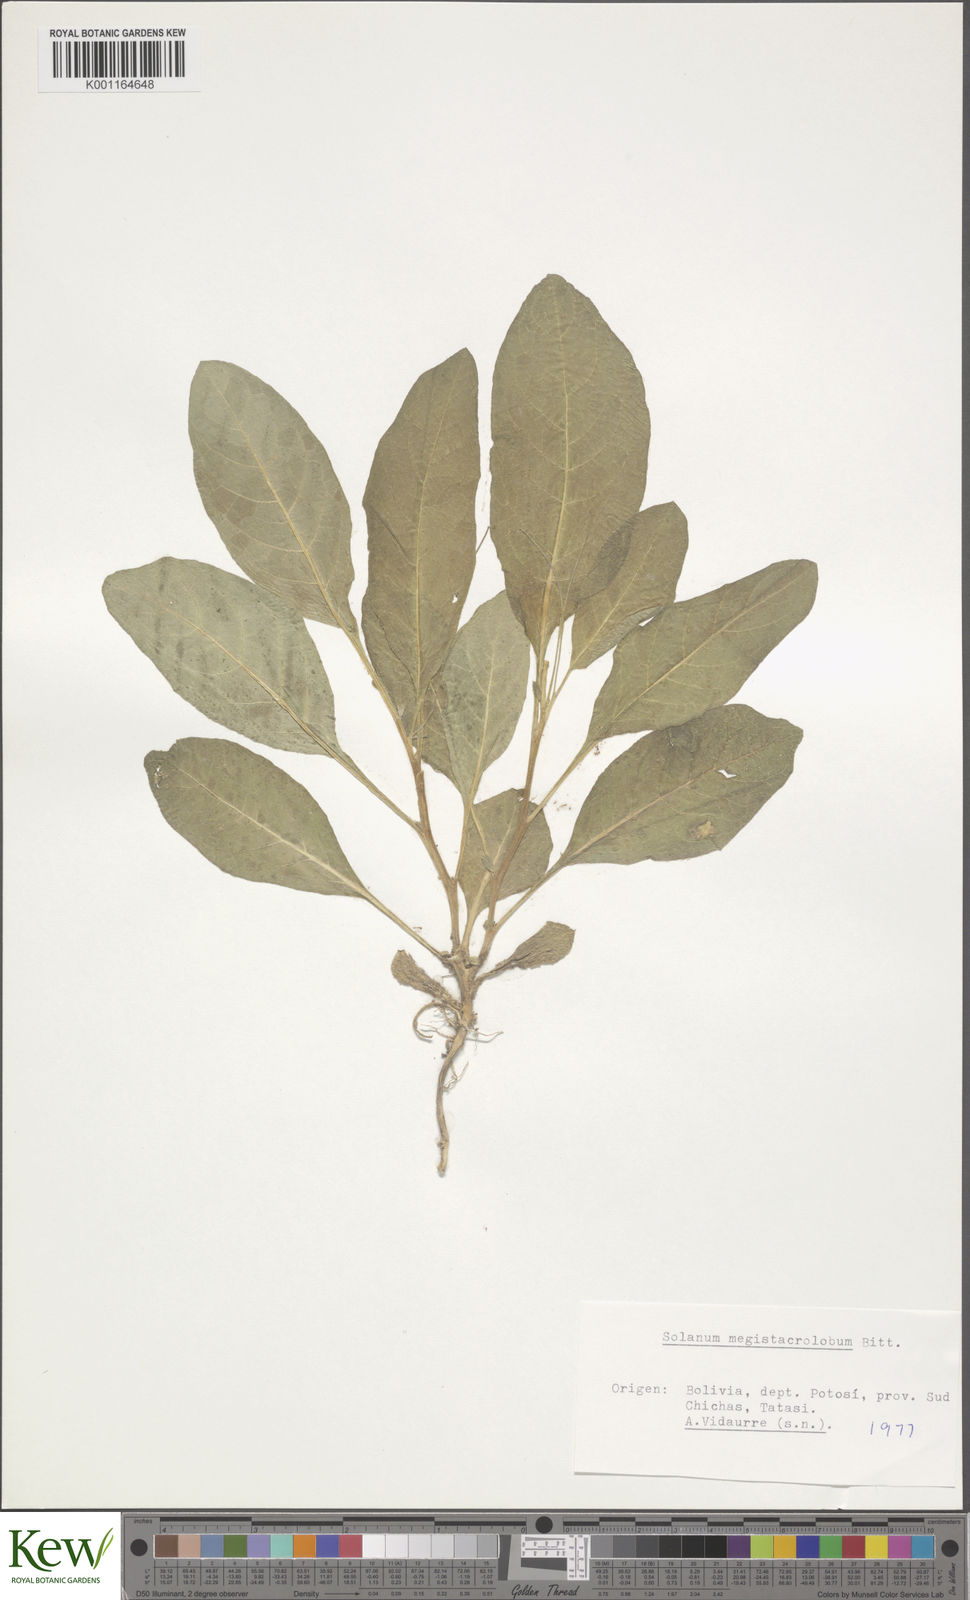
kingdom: Plantae
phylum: Tracheophyta
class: Magnoliopsida
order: Solanales
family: Solanaceae
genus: Solanum
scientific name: Solanum boliviense
